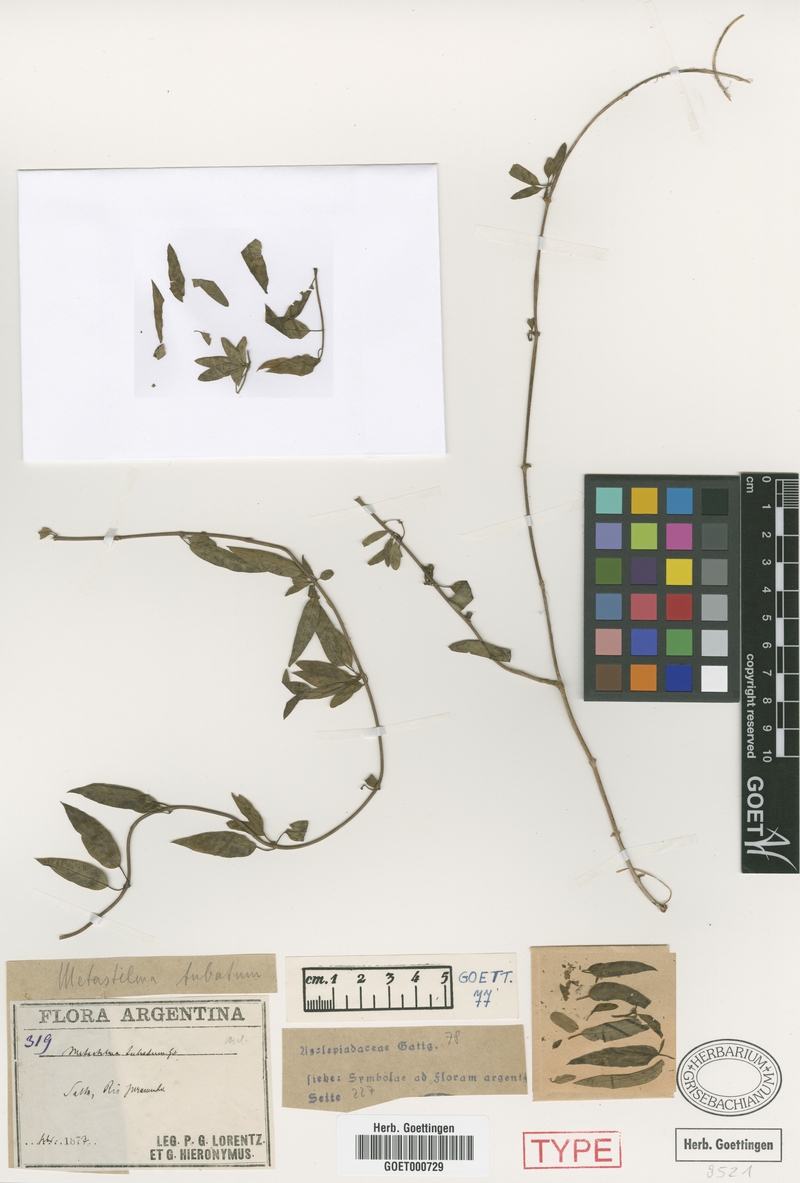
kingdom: Plantae
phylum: Tracheophyta
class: Magnoliopsida
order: Gentianales
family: Apocynaceae
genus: Metastelma
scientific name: Metastelma tubatum
